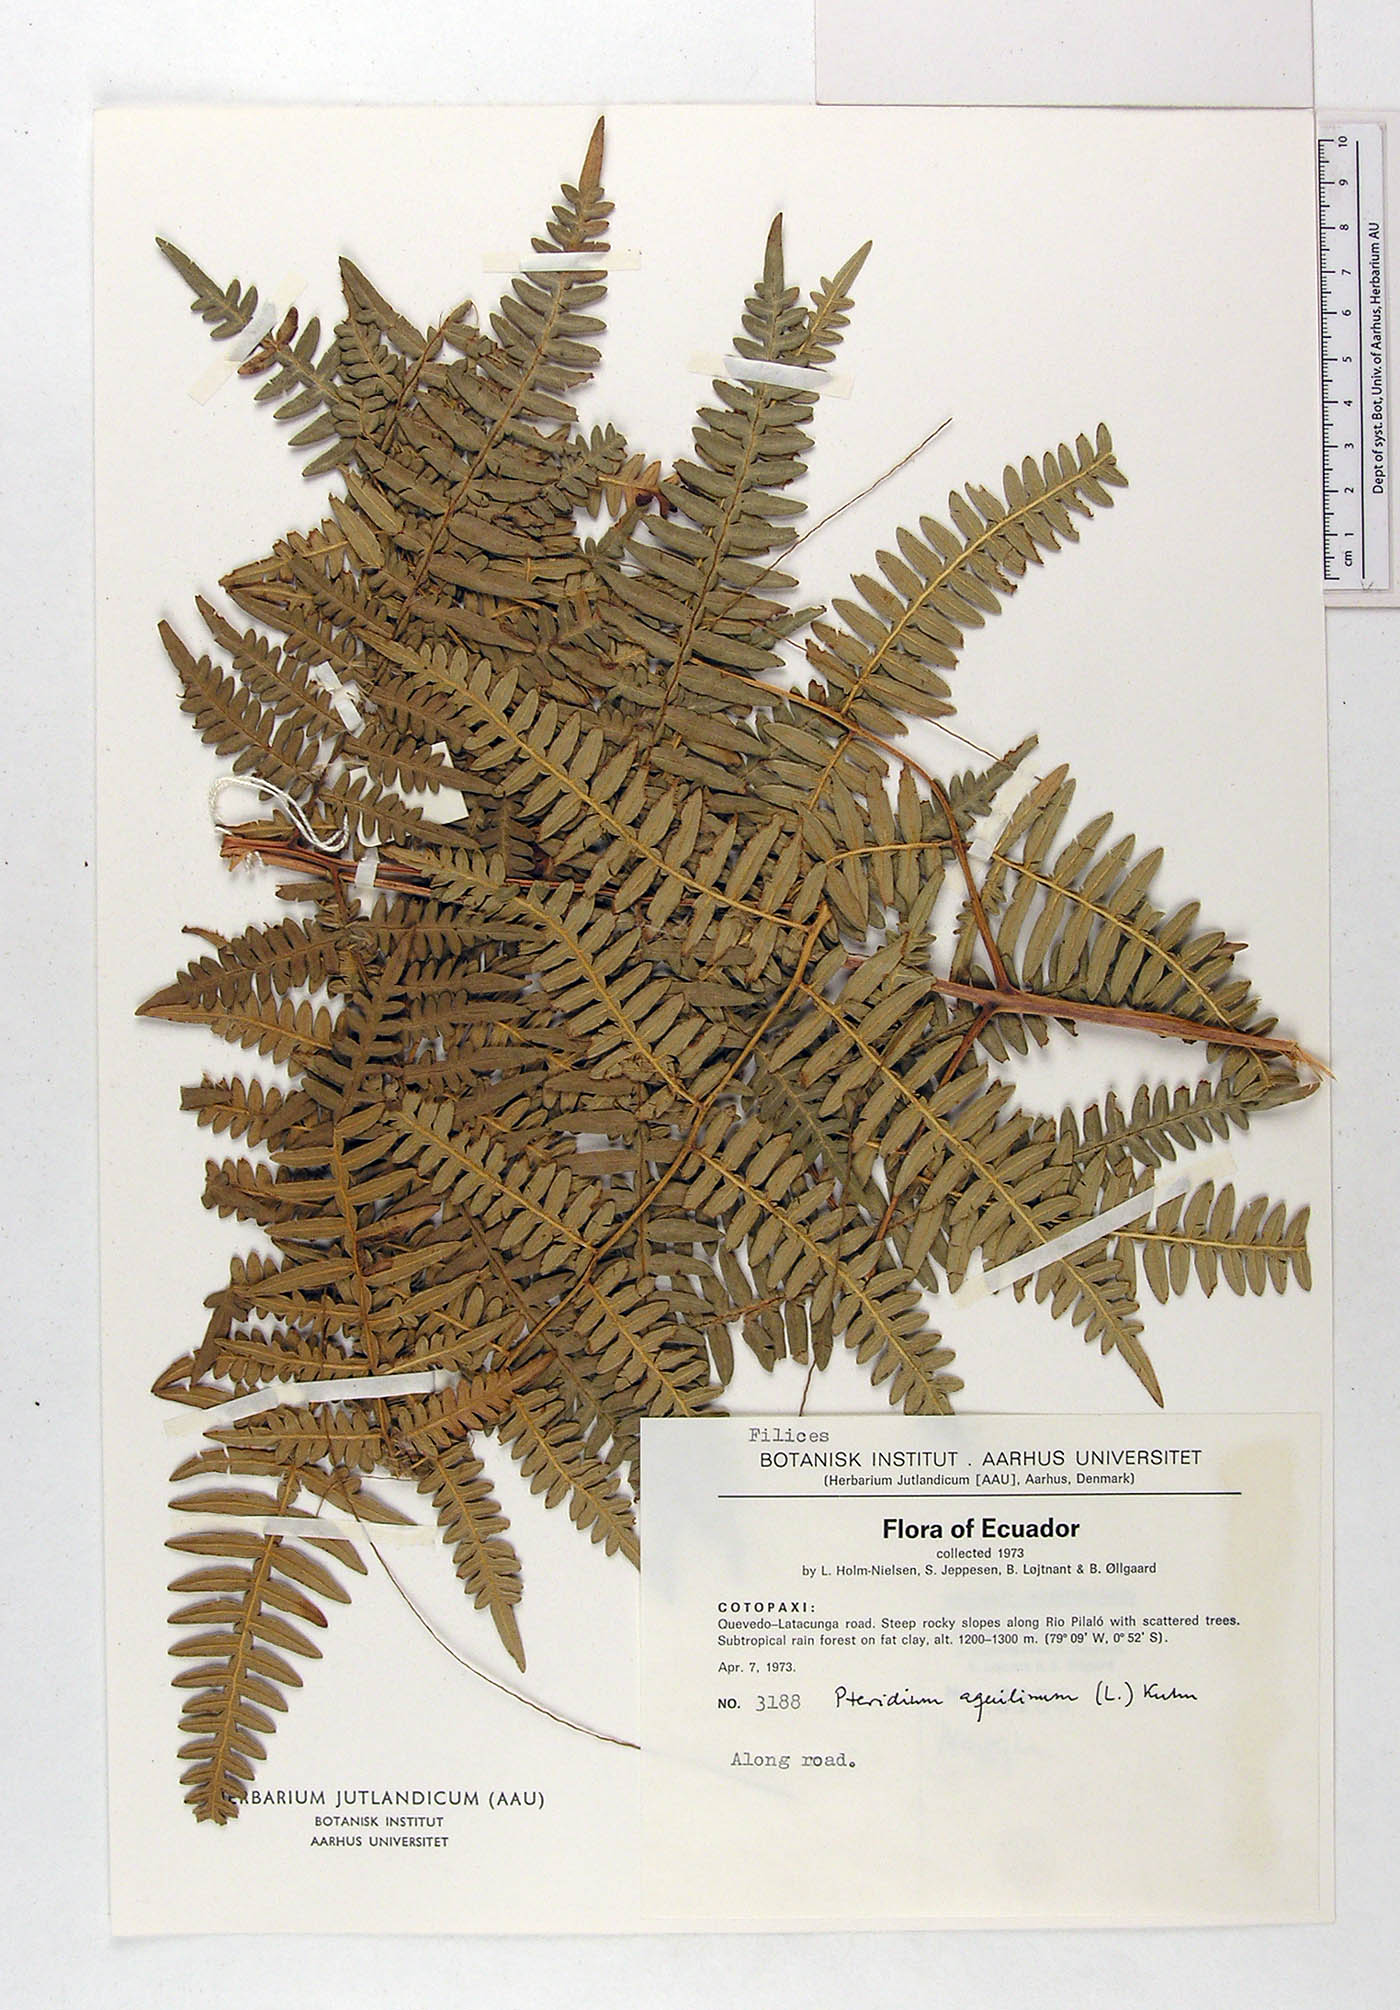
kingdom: Plantae
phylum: Tracheophyta
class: Polypodiopsida
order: Polypodiales
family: Dennstaedtiaceae
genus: Pteridium
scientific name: Pteridium aquilinum
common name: Bracken
